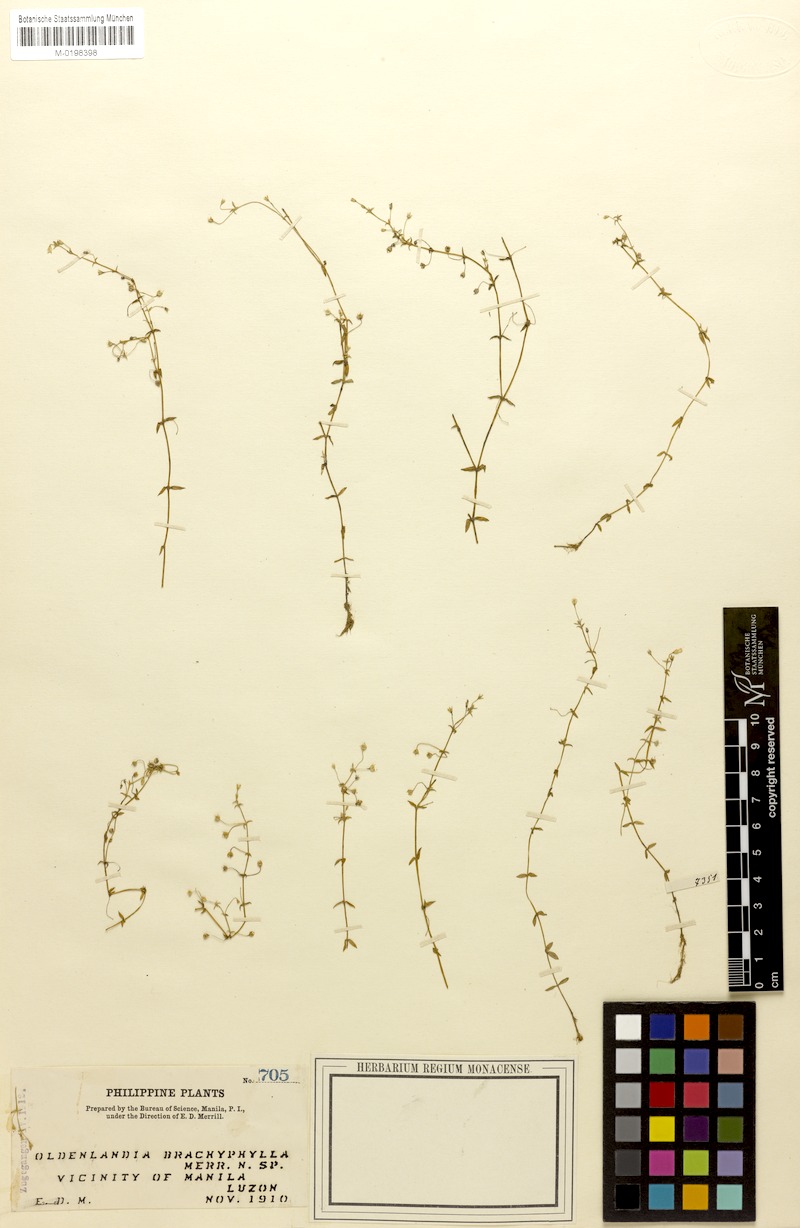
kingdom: Plantae
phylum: Tracheophyta
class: Magnoliopsida
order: Gentianales
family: Rubiaceae
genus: Oldenlandia
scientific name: Oldenlandia brachyphylla
